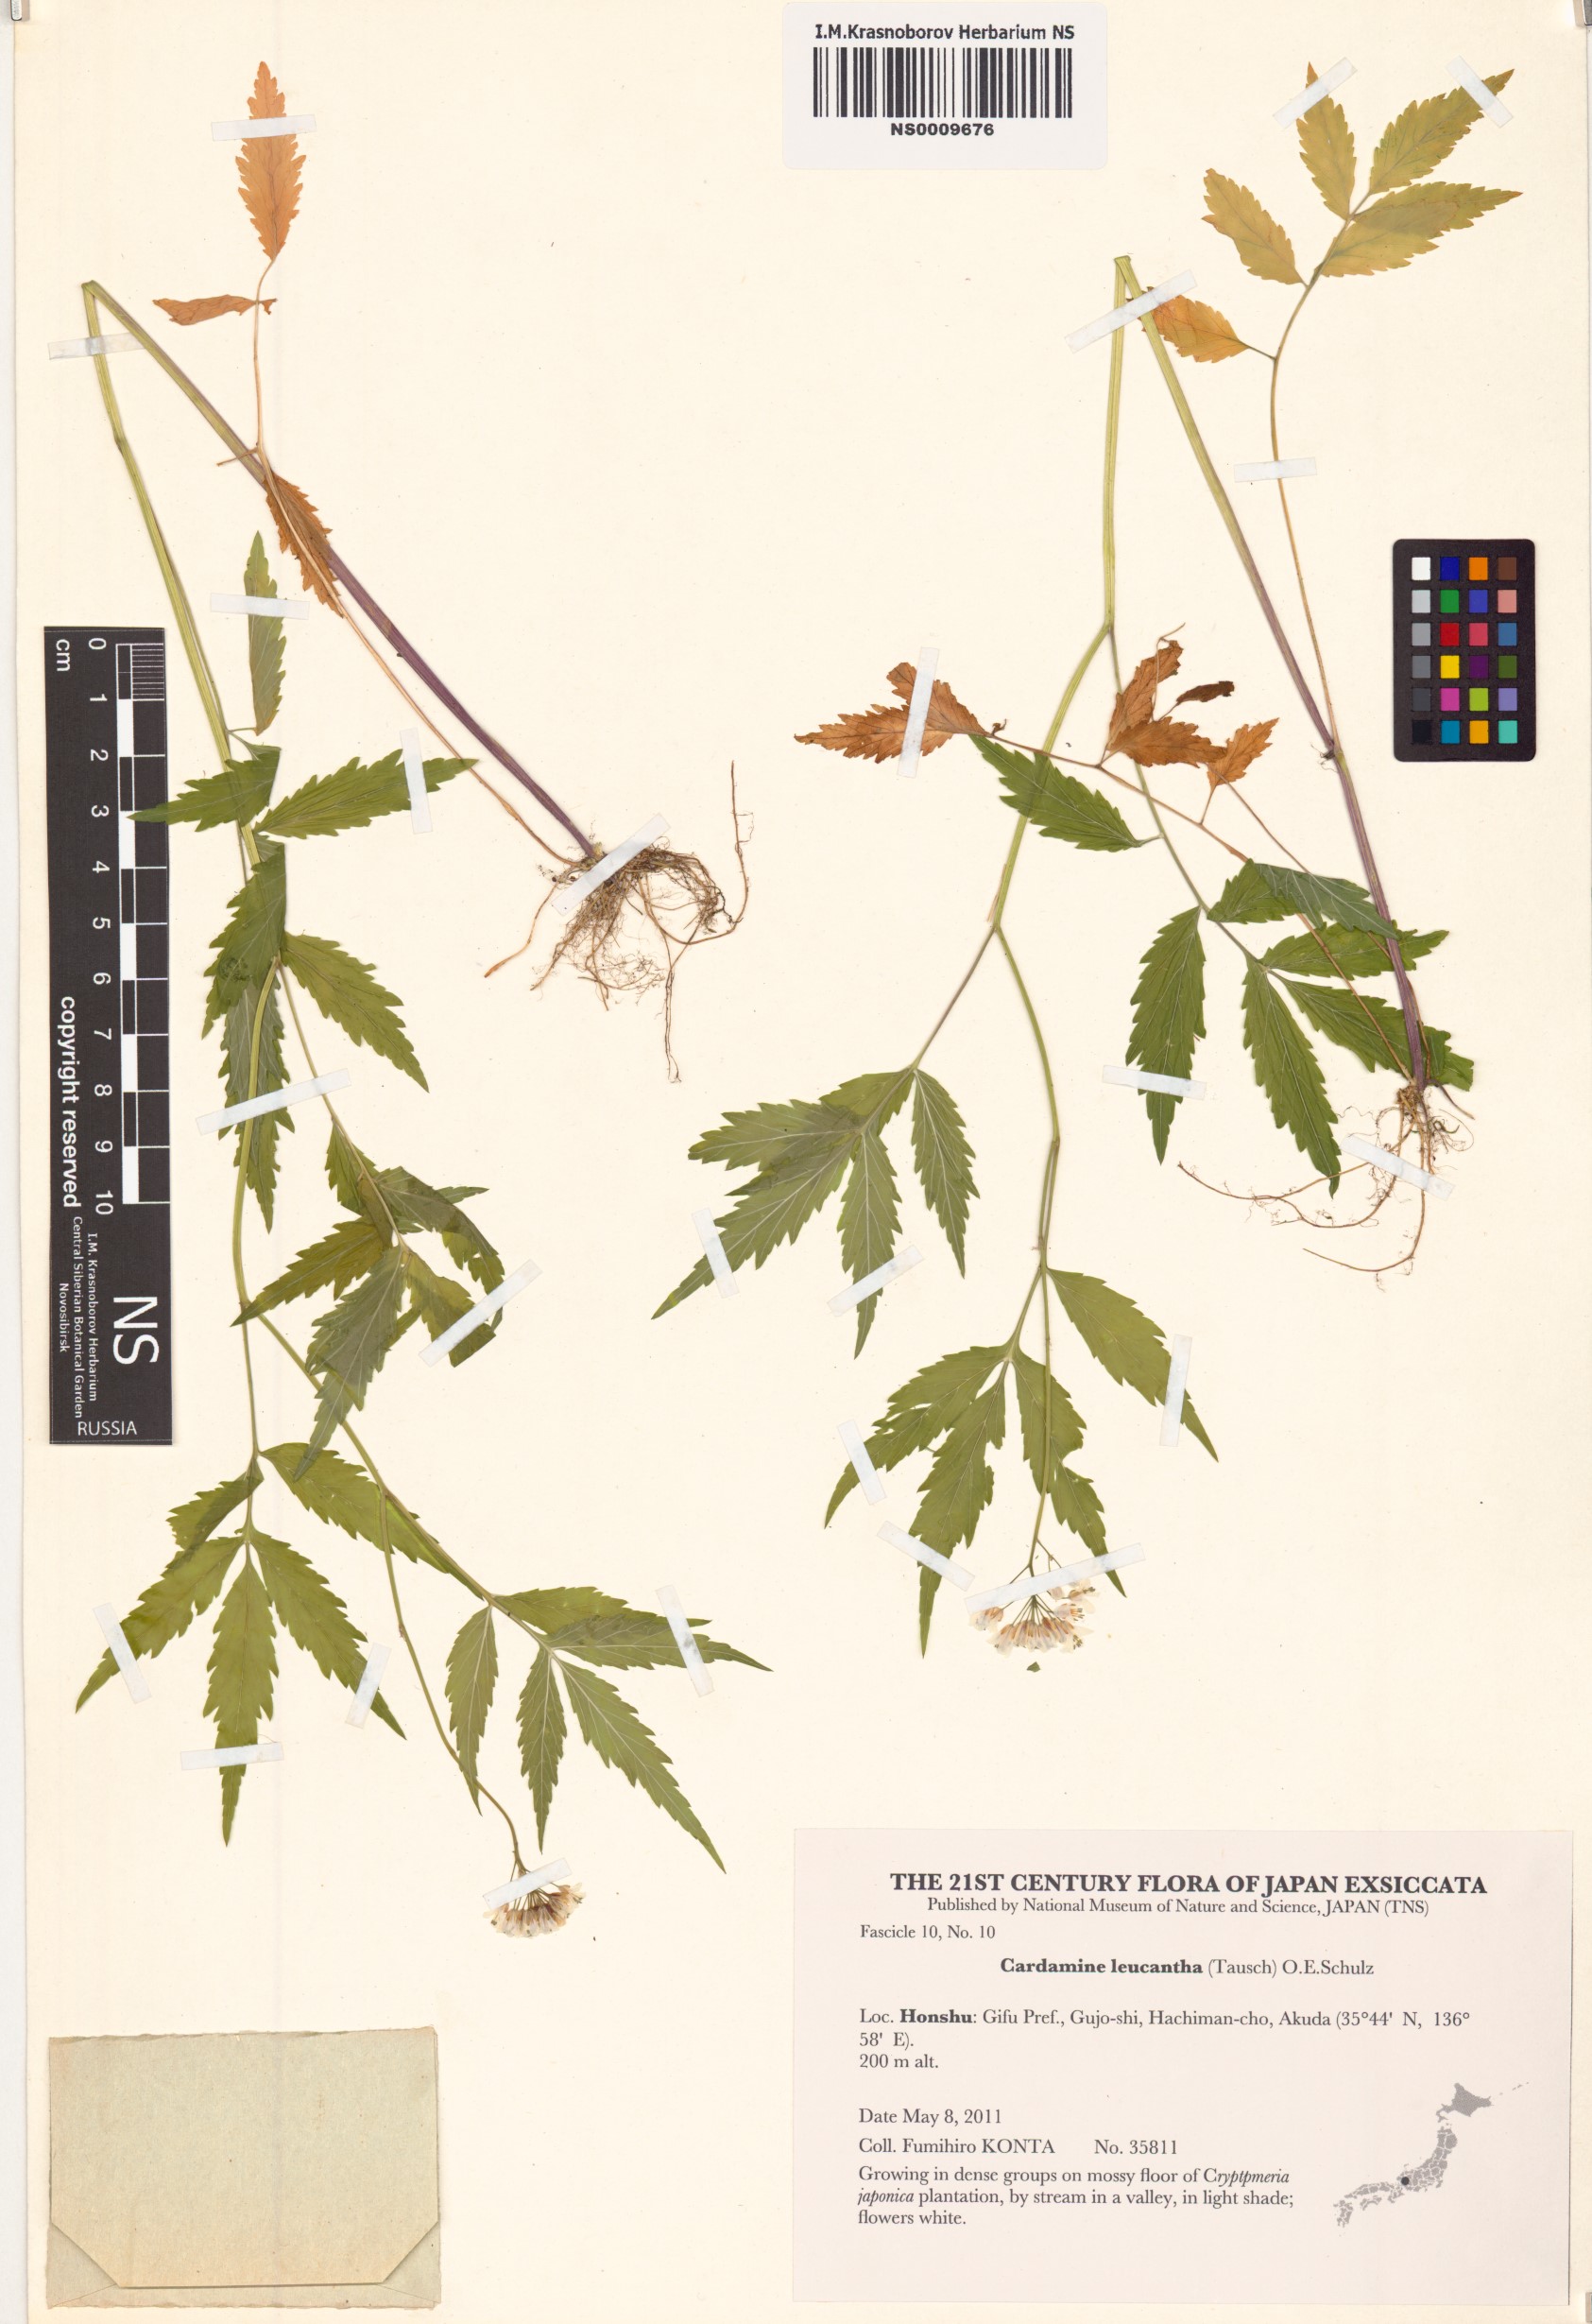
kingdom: Plantae
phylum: Tracheophyta
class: Magnoliopsida
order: Brassicales
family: Brassicaceae
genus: Cardamine
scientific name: Cardamine leucantha
